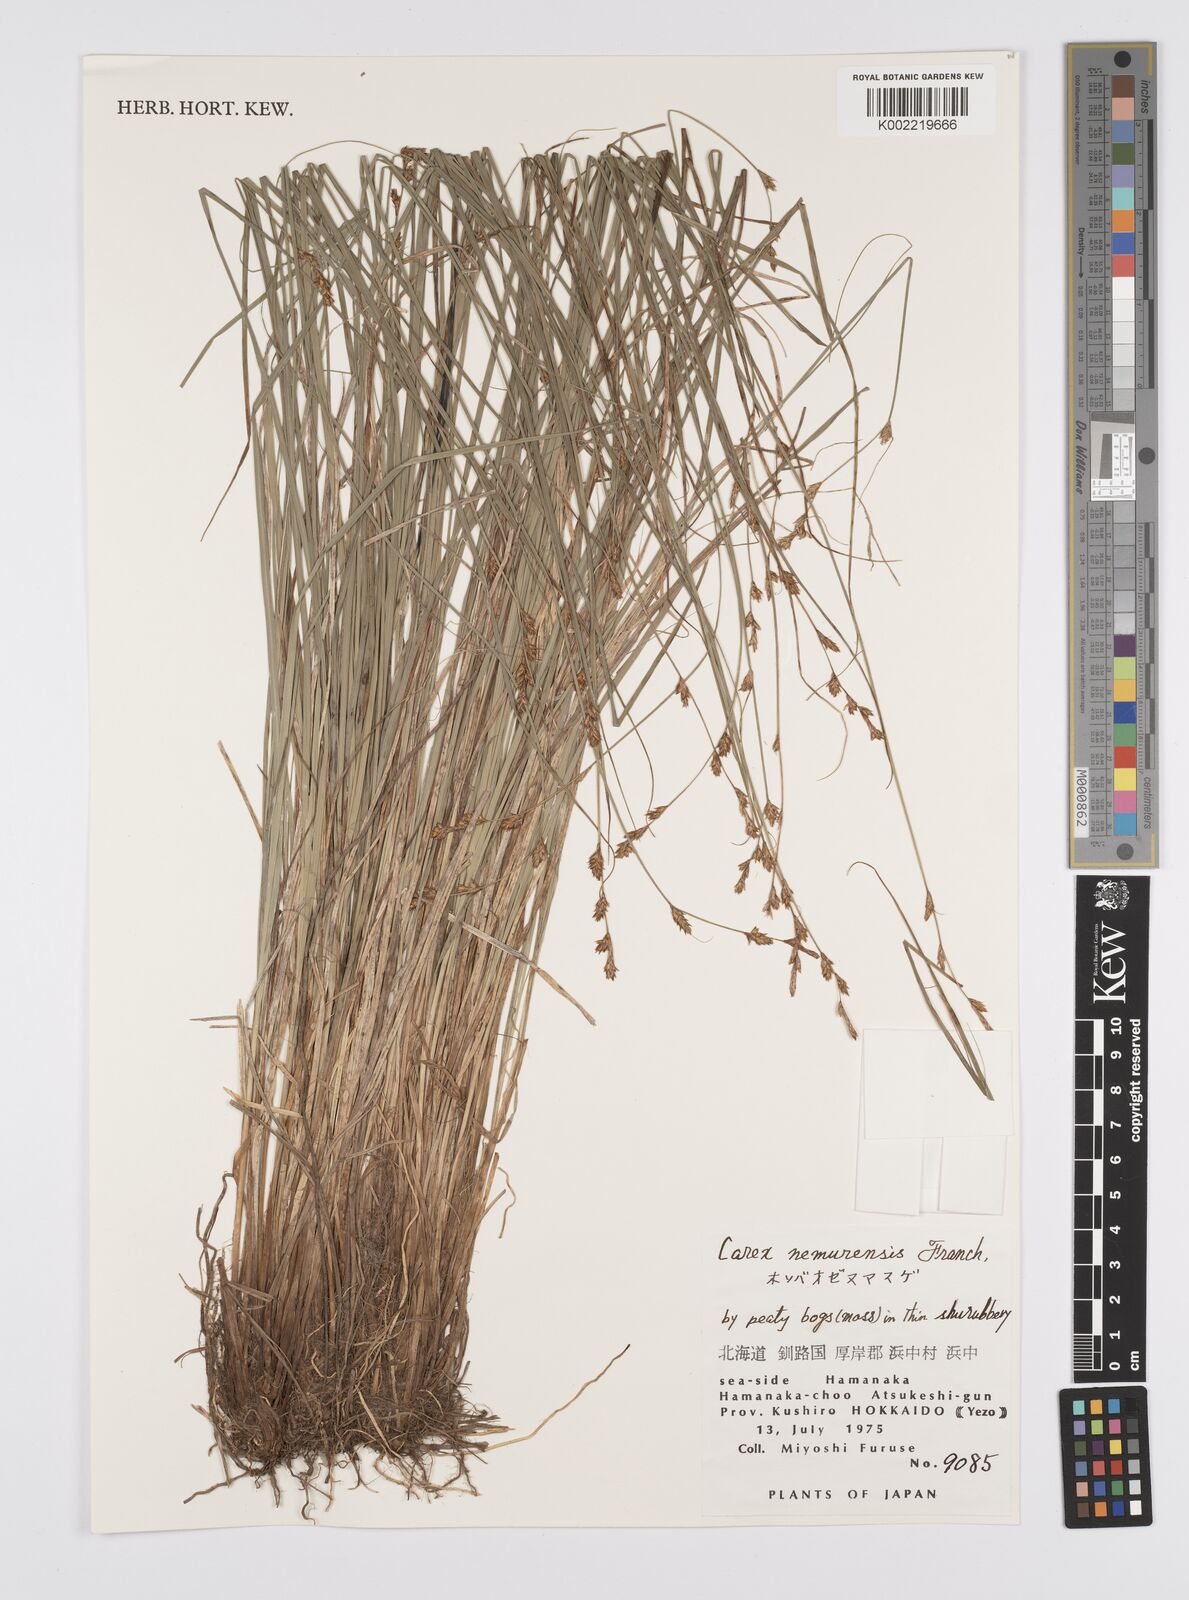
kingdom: Plantae
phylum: Tracheophyta
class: Liliopsida
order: Poales
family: Cyperaceae
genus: Carex
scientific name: Carex traiziscana
